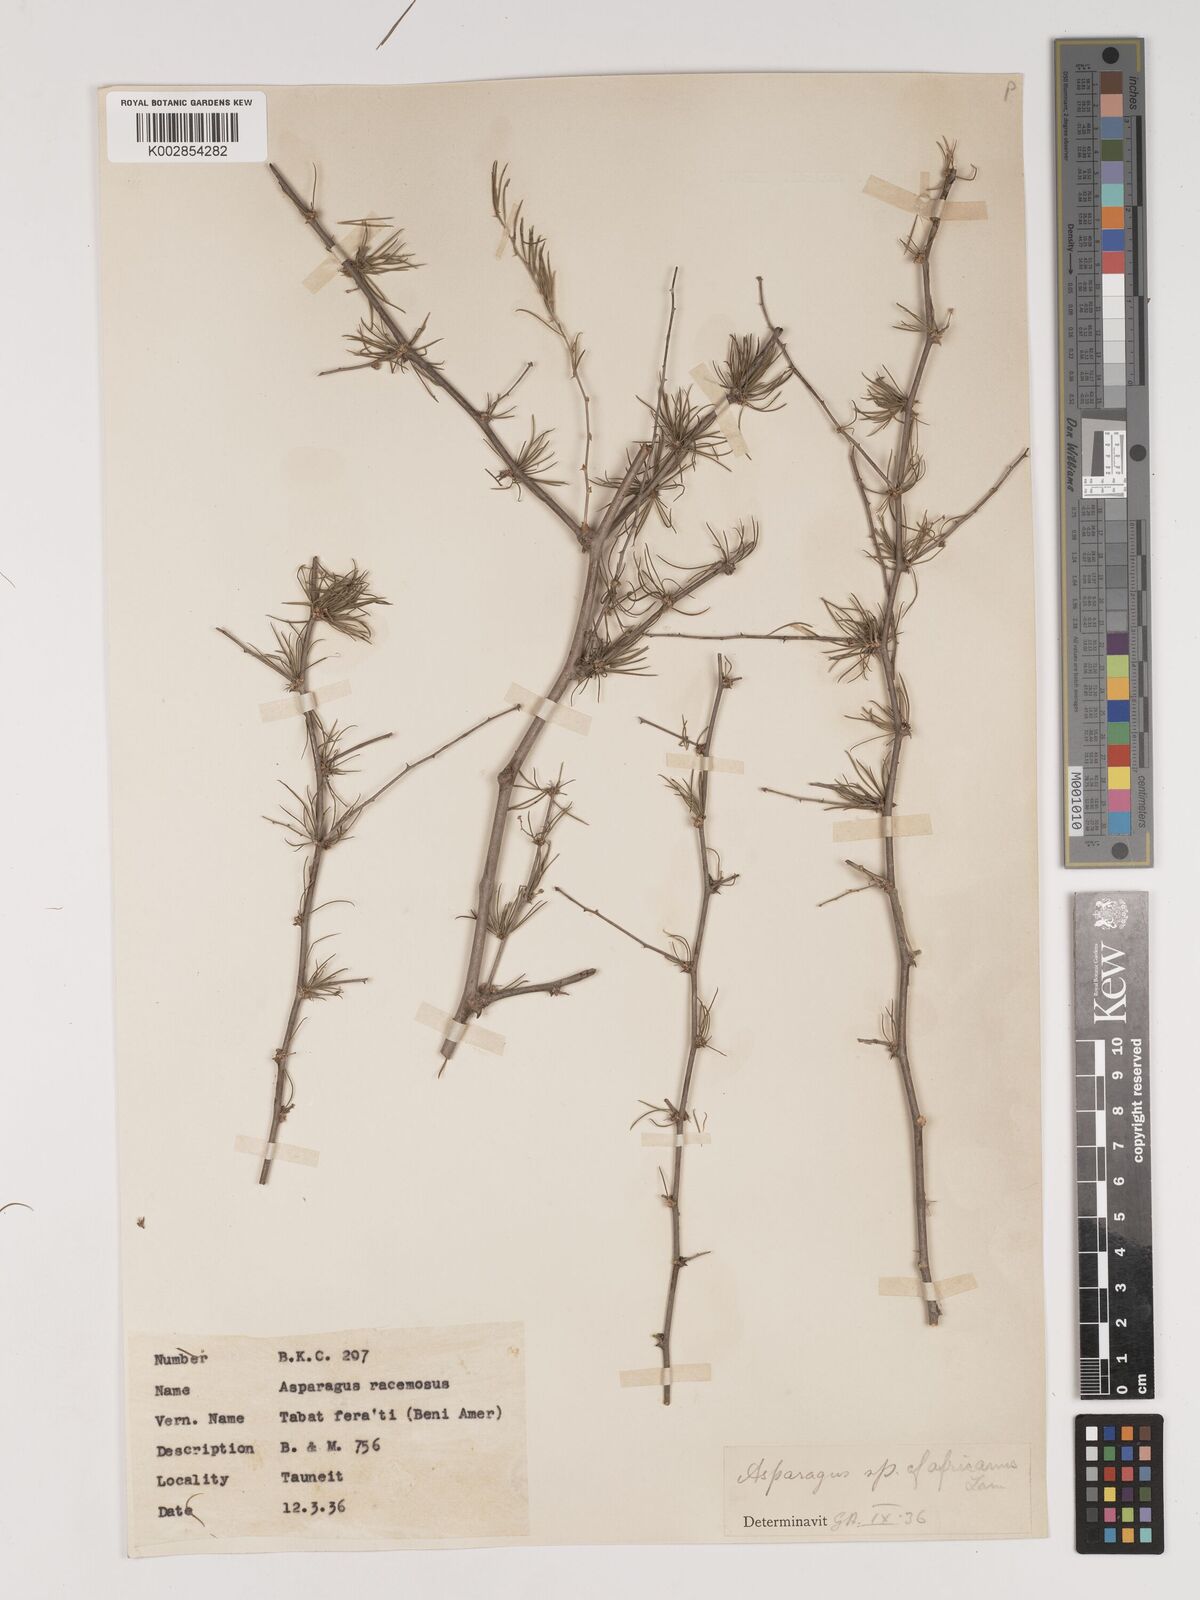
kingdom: Plantae
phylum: Tracheophyta
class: Liliopsida
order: Asparagales
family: Asparagaceae
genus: Asparagus
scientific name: Asparagus africanus
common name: Asparagus-fern
